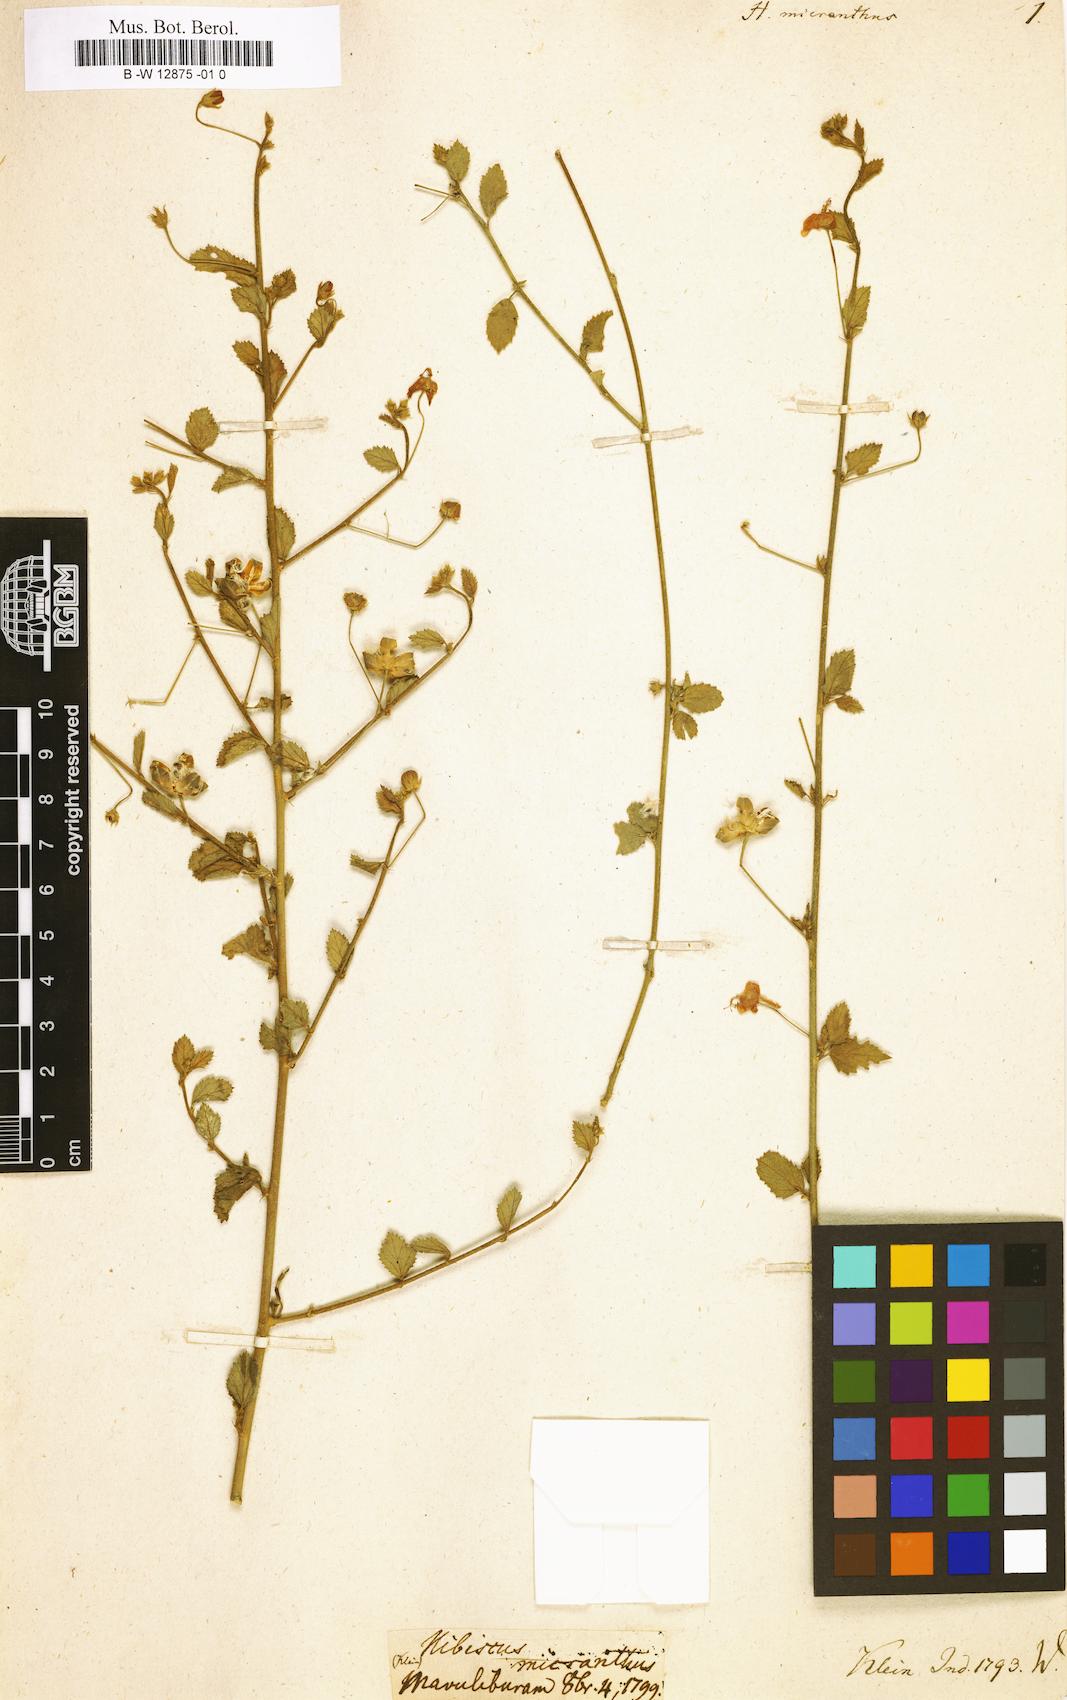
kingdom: Plantae
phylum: Tracheophyta
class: Magnoliopsida
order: Malvales
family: Malvaceae
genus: Hibiscus
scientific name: Hibiscus micranthus
